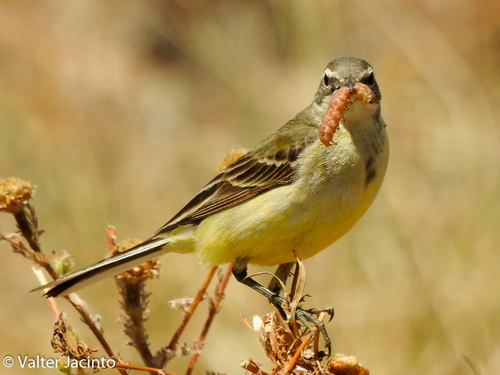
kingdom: Animalia
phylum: Chordata
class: Aves
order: Passeriformes
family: Motacillidae
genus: Motacilla
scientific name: Motacilla flava
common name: Western yellow wagtail
